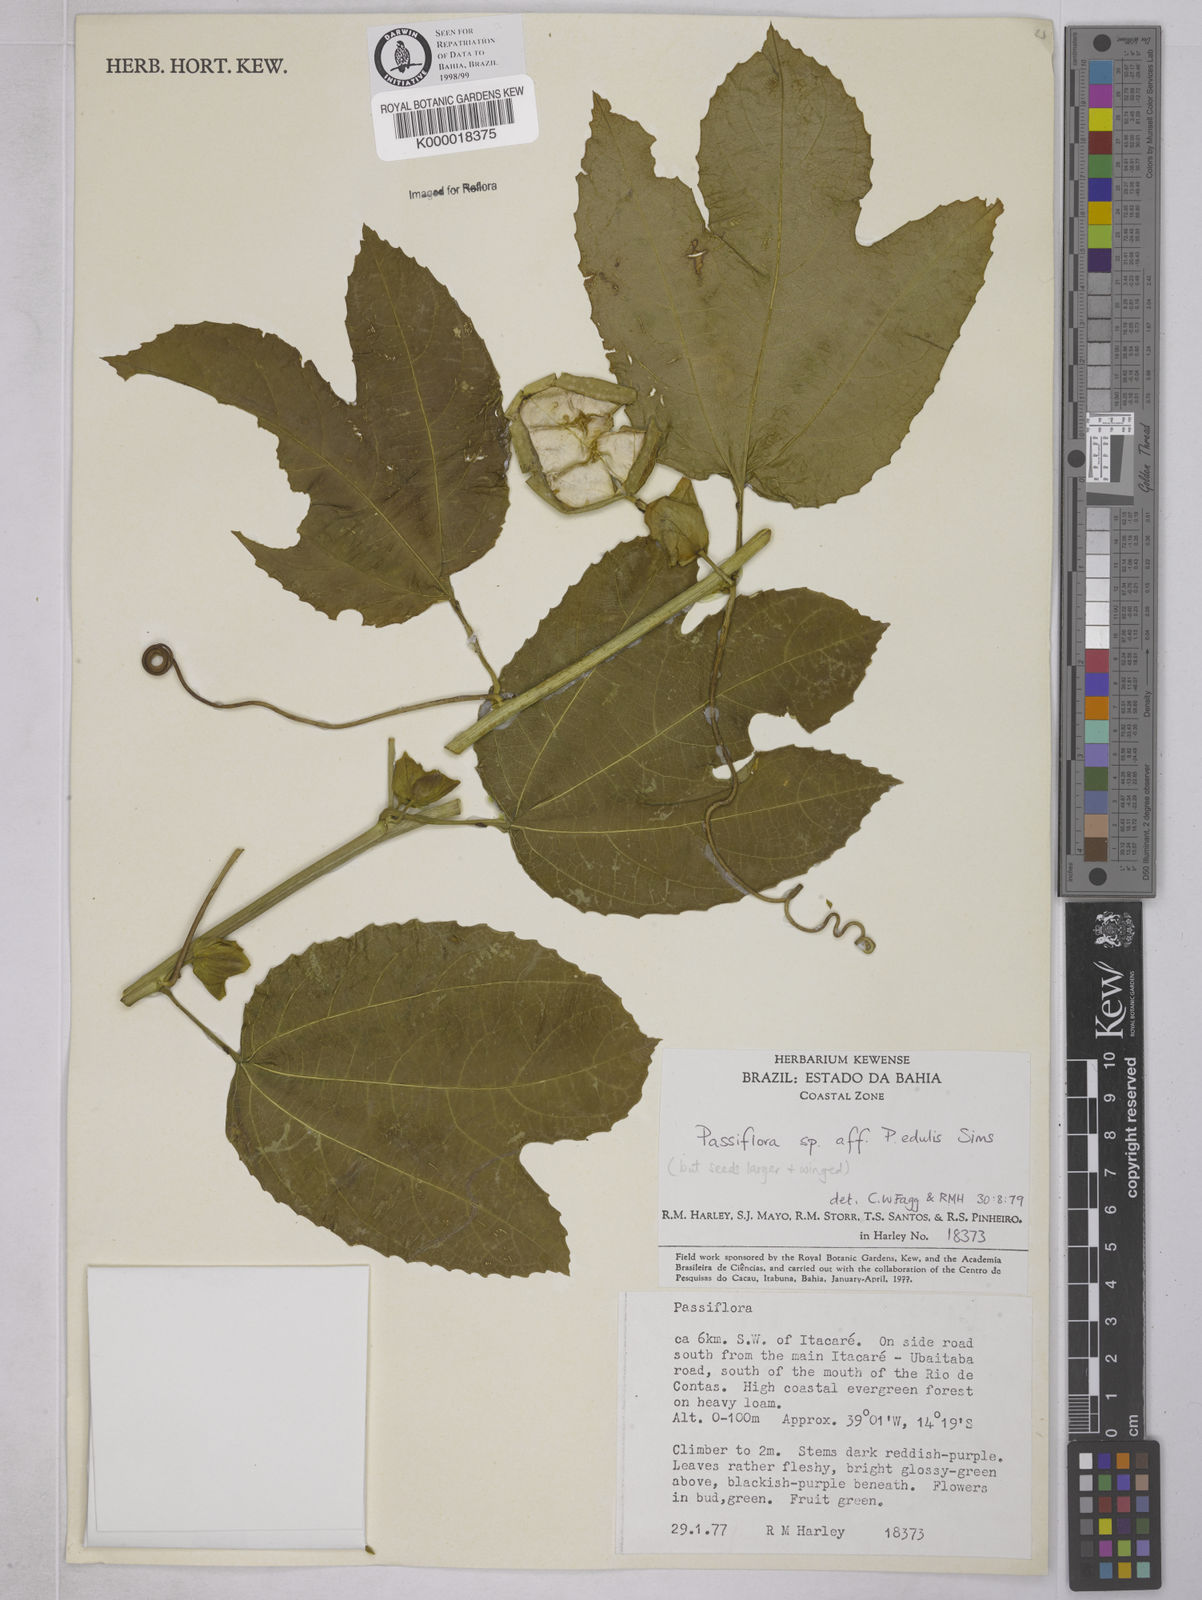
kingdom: Plantae
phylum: Tracheophyta
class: Magnoliopsida
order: Malpighiales
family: Passifloraceae
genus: Passiflora
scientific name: Passiflora edulis
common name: Purple granadilla
